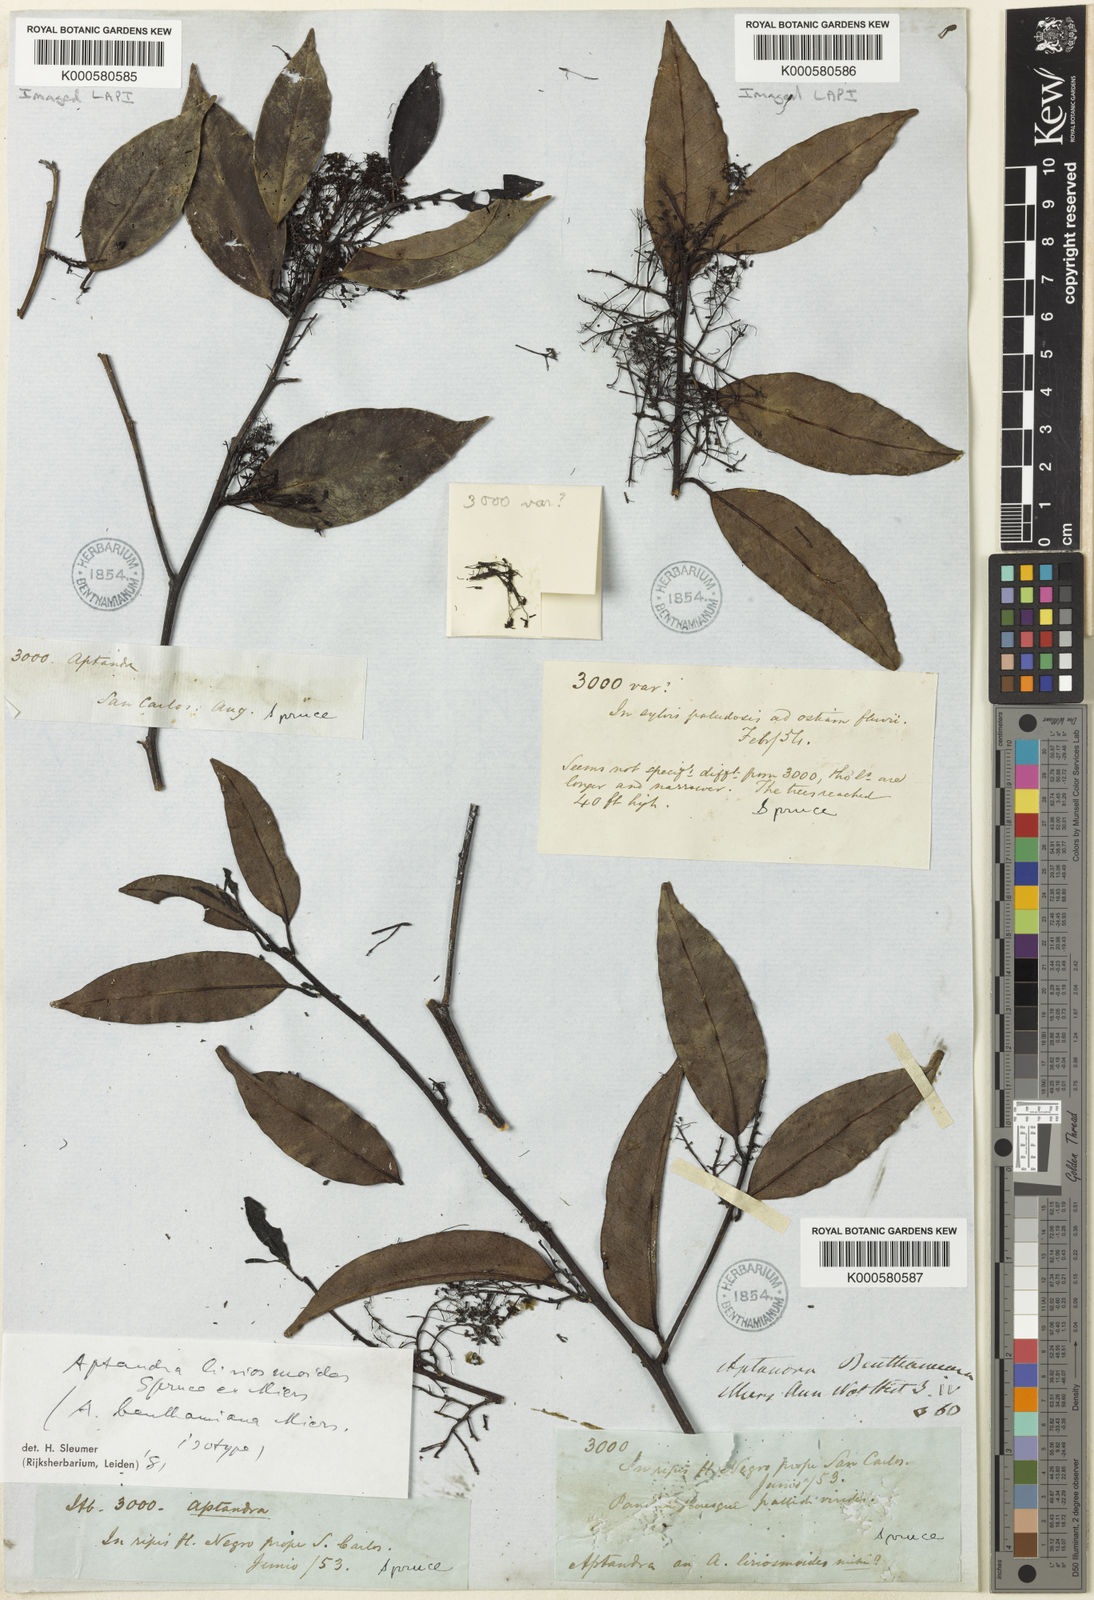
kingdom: Plantae
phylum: Tracheophyta
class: Magnoliopsida
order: Santalales
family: Aptandraceae
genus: Aptandra
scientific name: Aptandra liriosmoides
